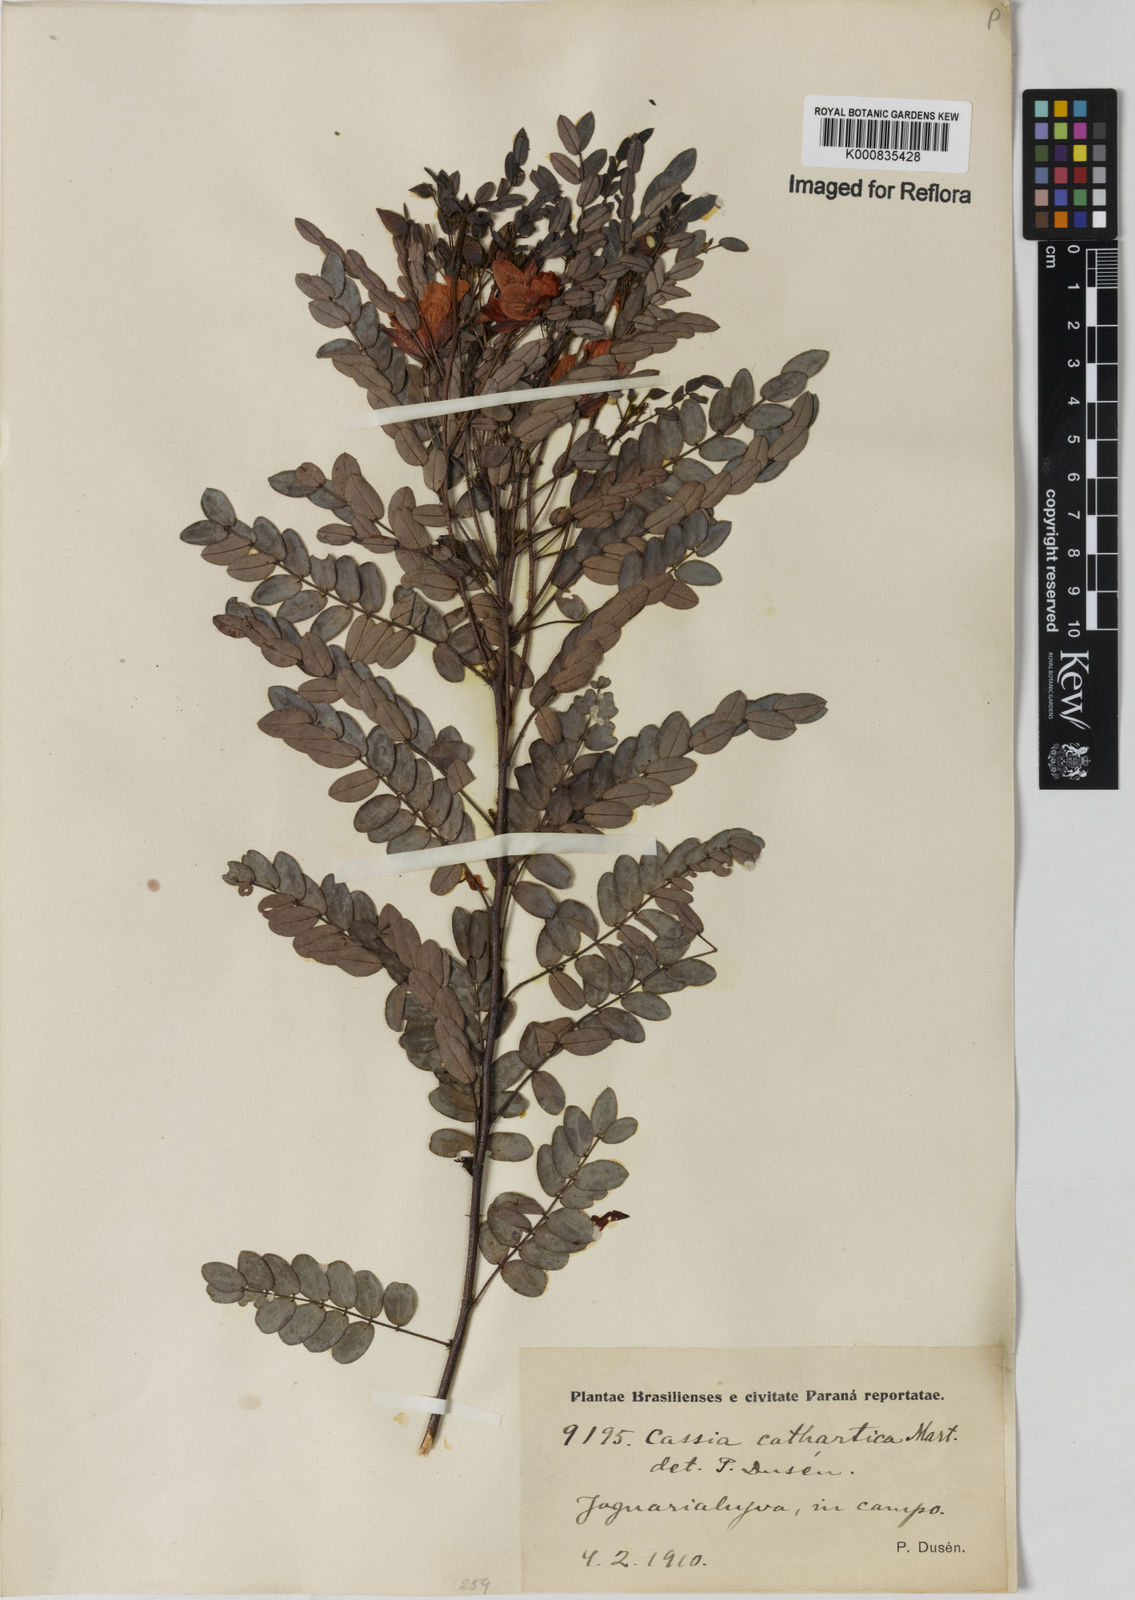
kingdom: Plantae
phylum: Tracheophyta
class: Magnoliopsida
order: Fabales
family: Fabaceae
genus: Chamaecrista
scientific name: Chamaecrista cathartica
